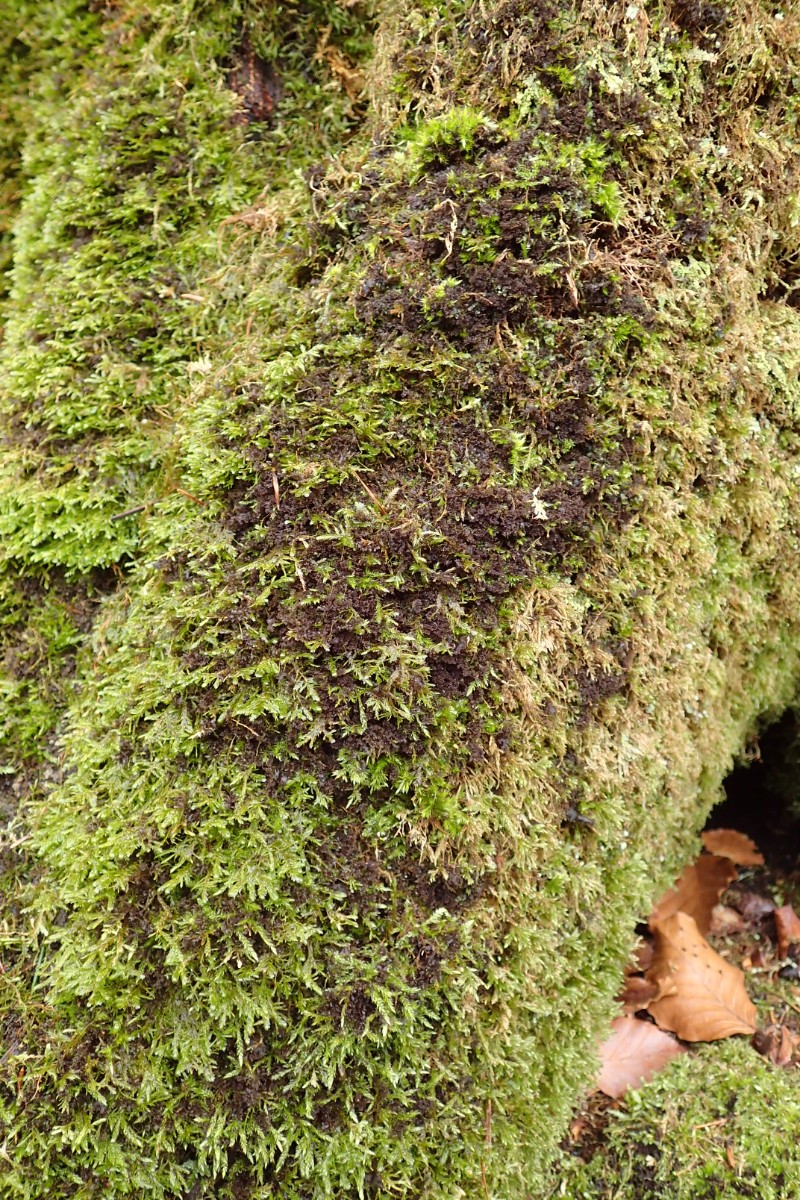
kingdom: Fungi
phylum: Ascomycota
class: Lecanoromycetes
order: Peltigerales
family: Collemataceae
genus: Scytinium
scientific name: Scytinium lichenoides
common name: frynset hindelav
